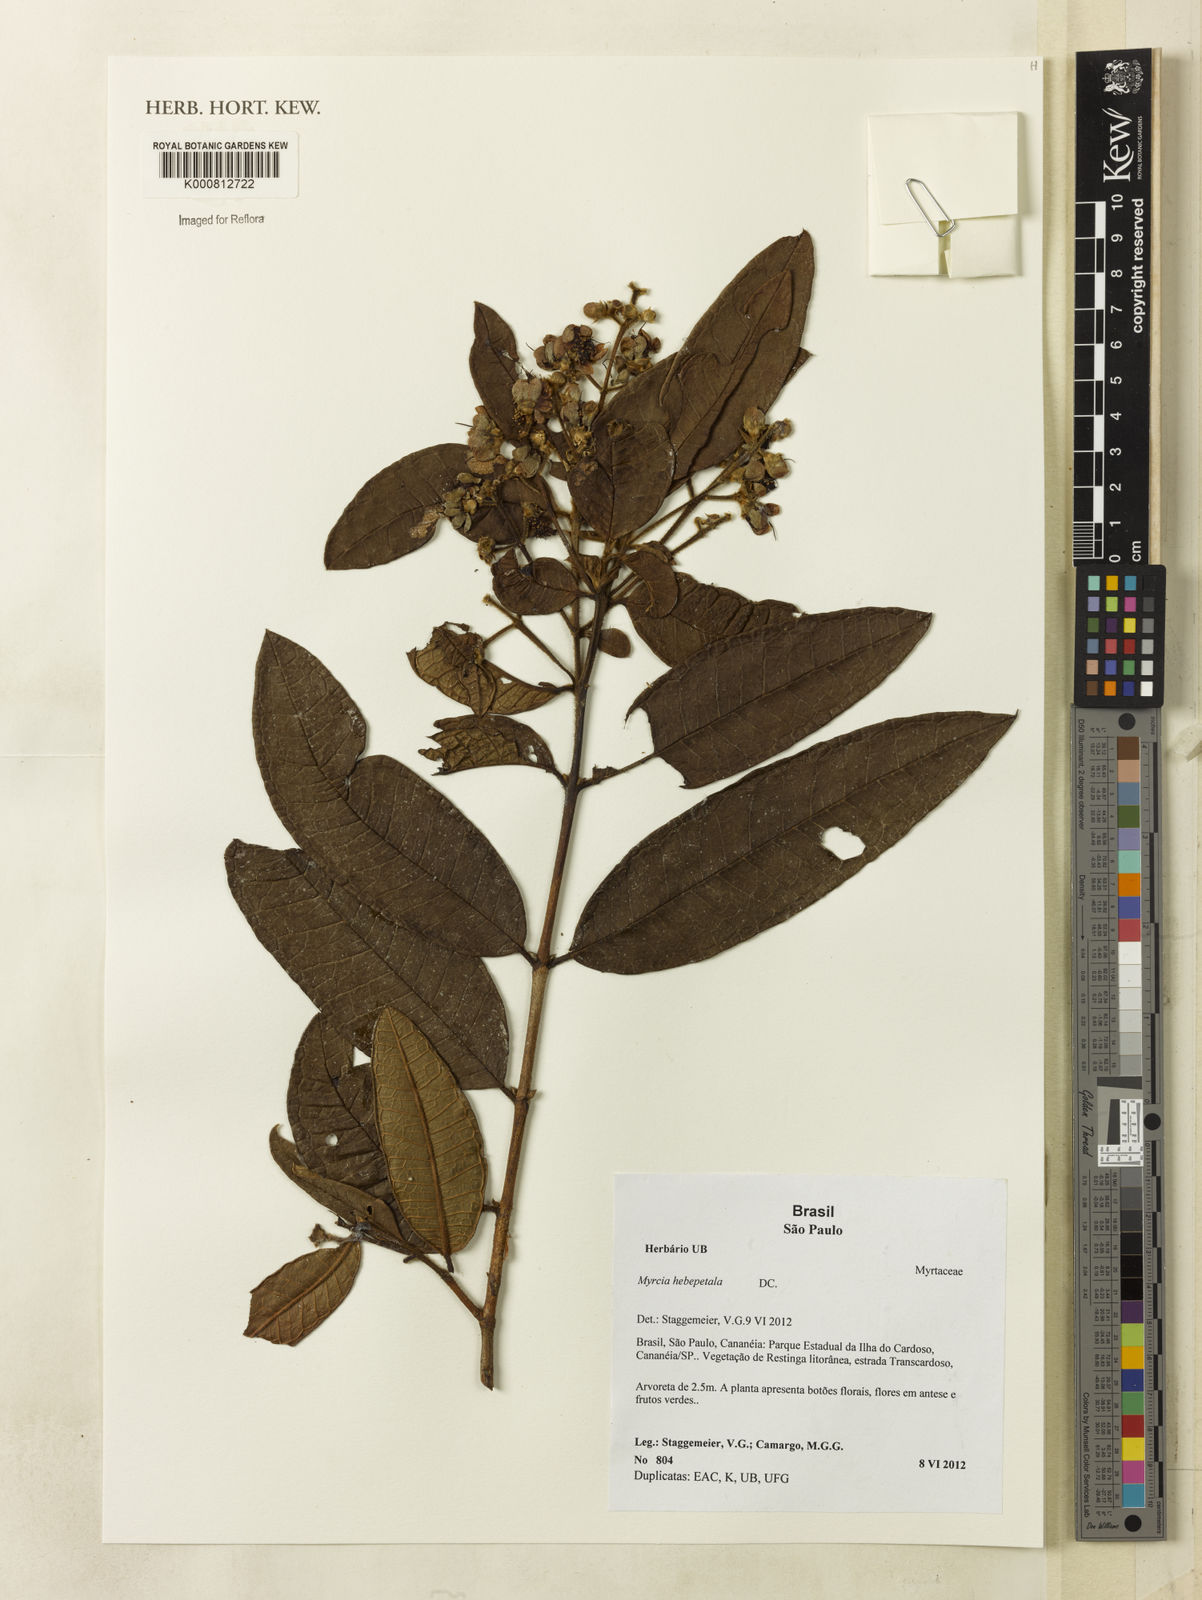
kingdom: Plantae
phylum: Tracheophyta
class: Magnoliopsida
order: Myrtales
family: Myrtaceae
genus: Myrcia
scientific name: Myrcia hebepetala
